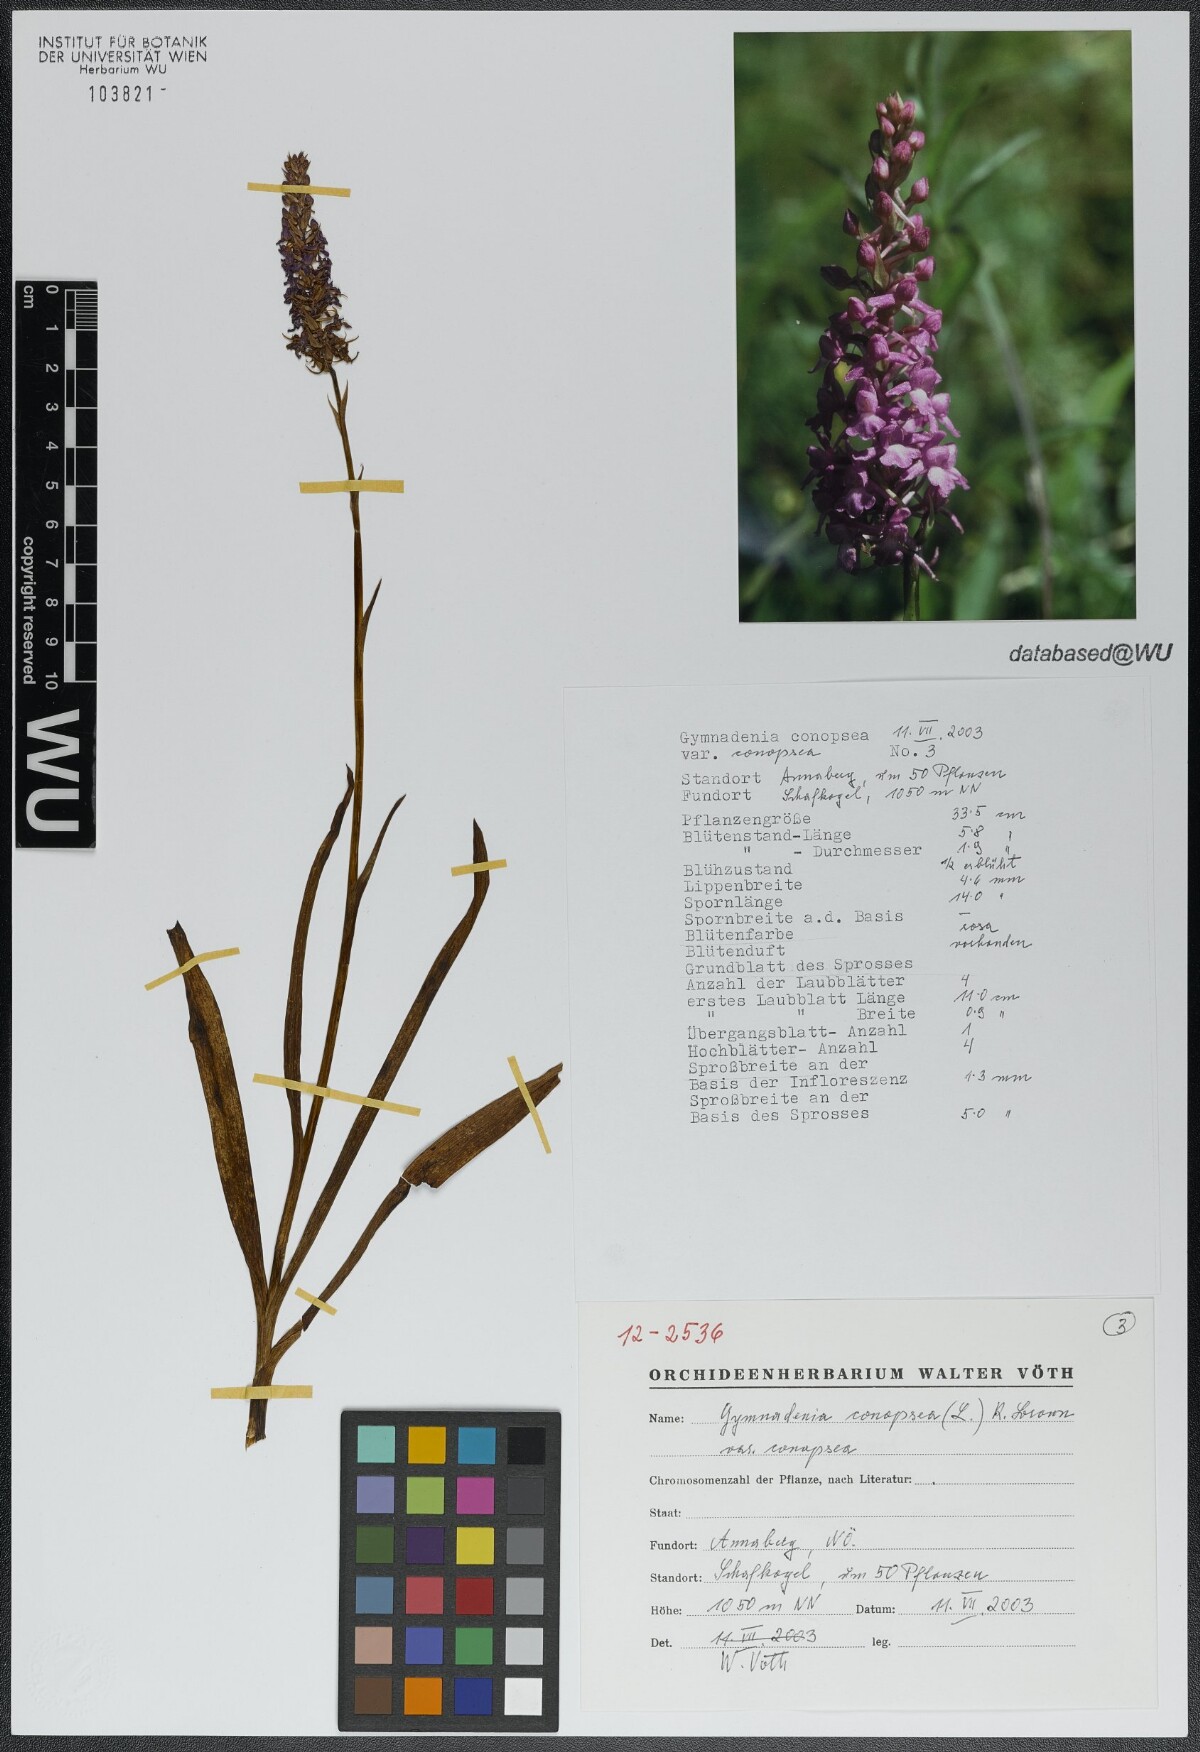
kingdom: Plantae
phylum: Tracheophyta
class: Liliopsida
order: Asparagales
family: Orchidaceae
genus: Gymnadenia
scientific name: Gymnadenia conopsea
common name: Fragrant orchid
